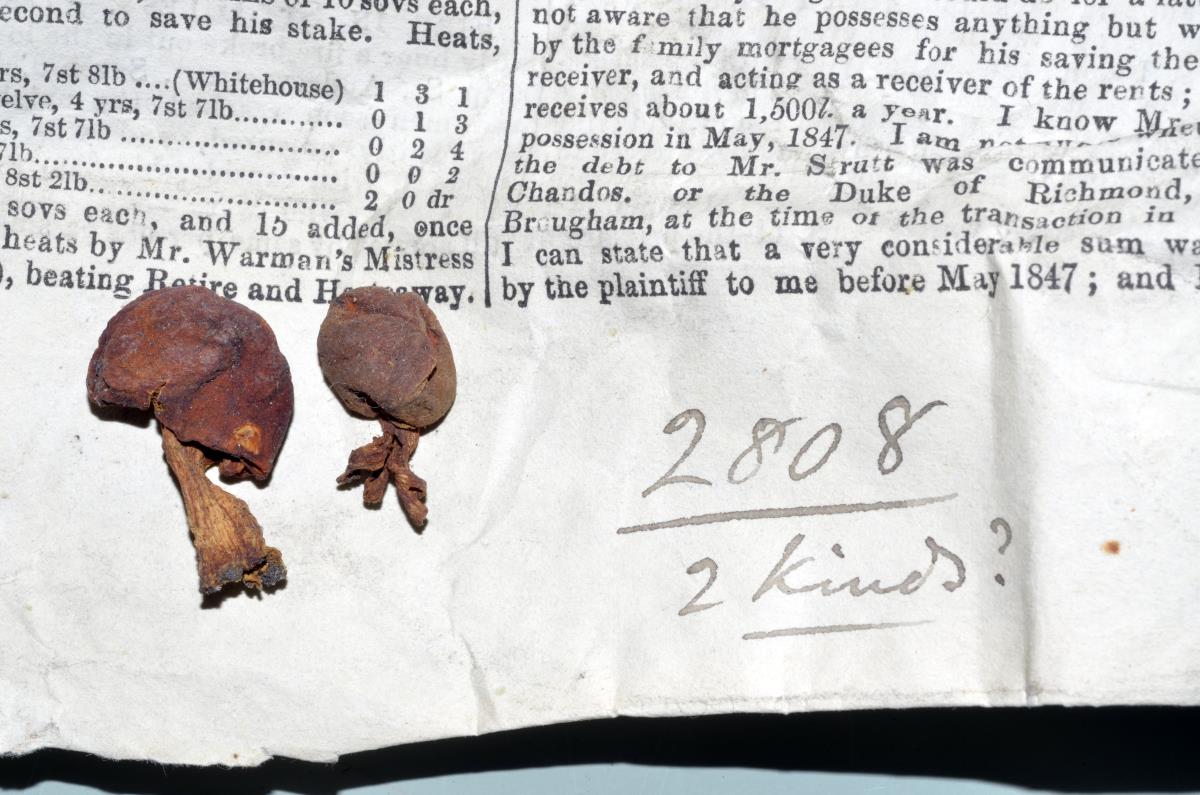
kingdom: Fungi
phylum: Basidiomycota
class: Agaricomycetes
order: Agaricales
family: Strophariaceae
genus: Leratiomyces
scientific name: Leratiomyces erythrocephalus
